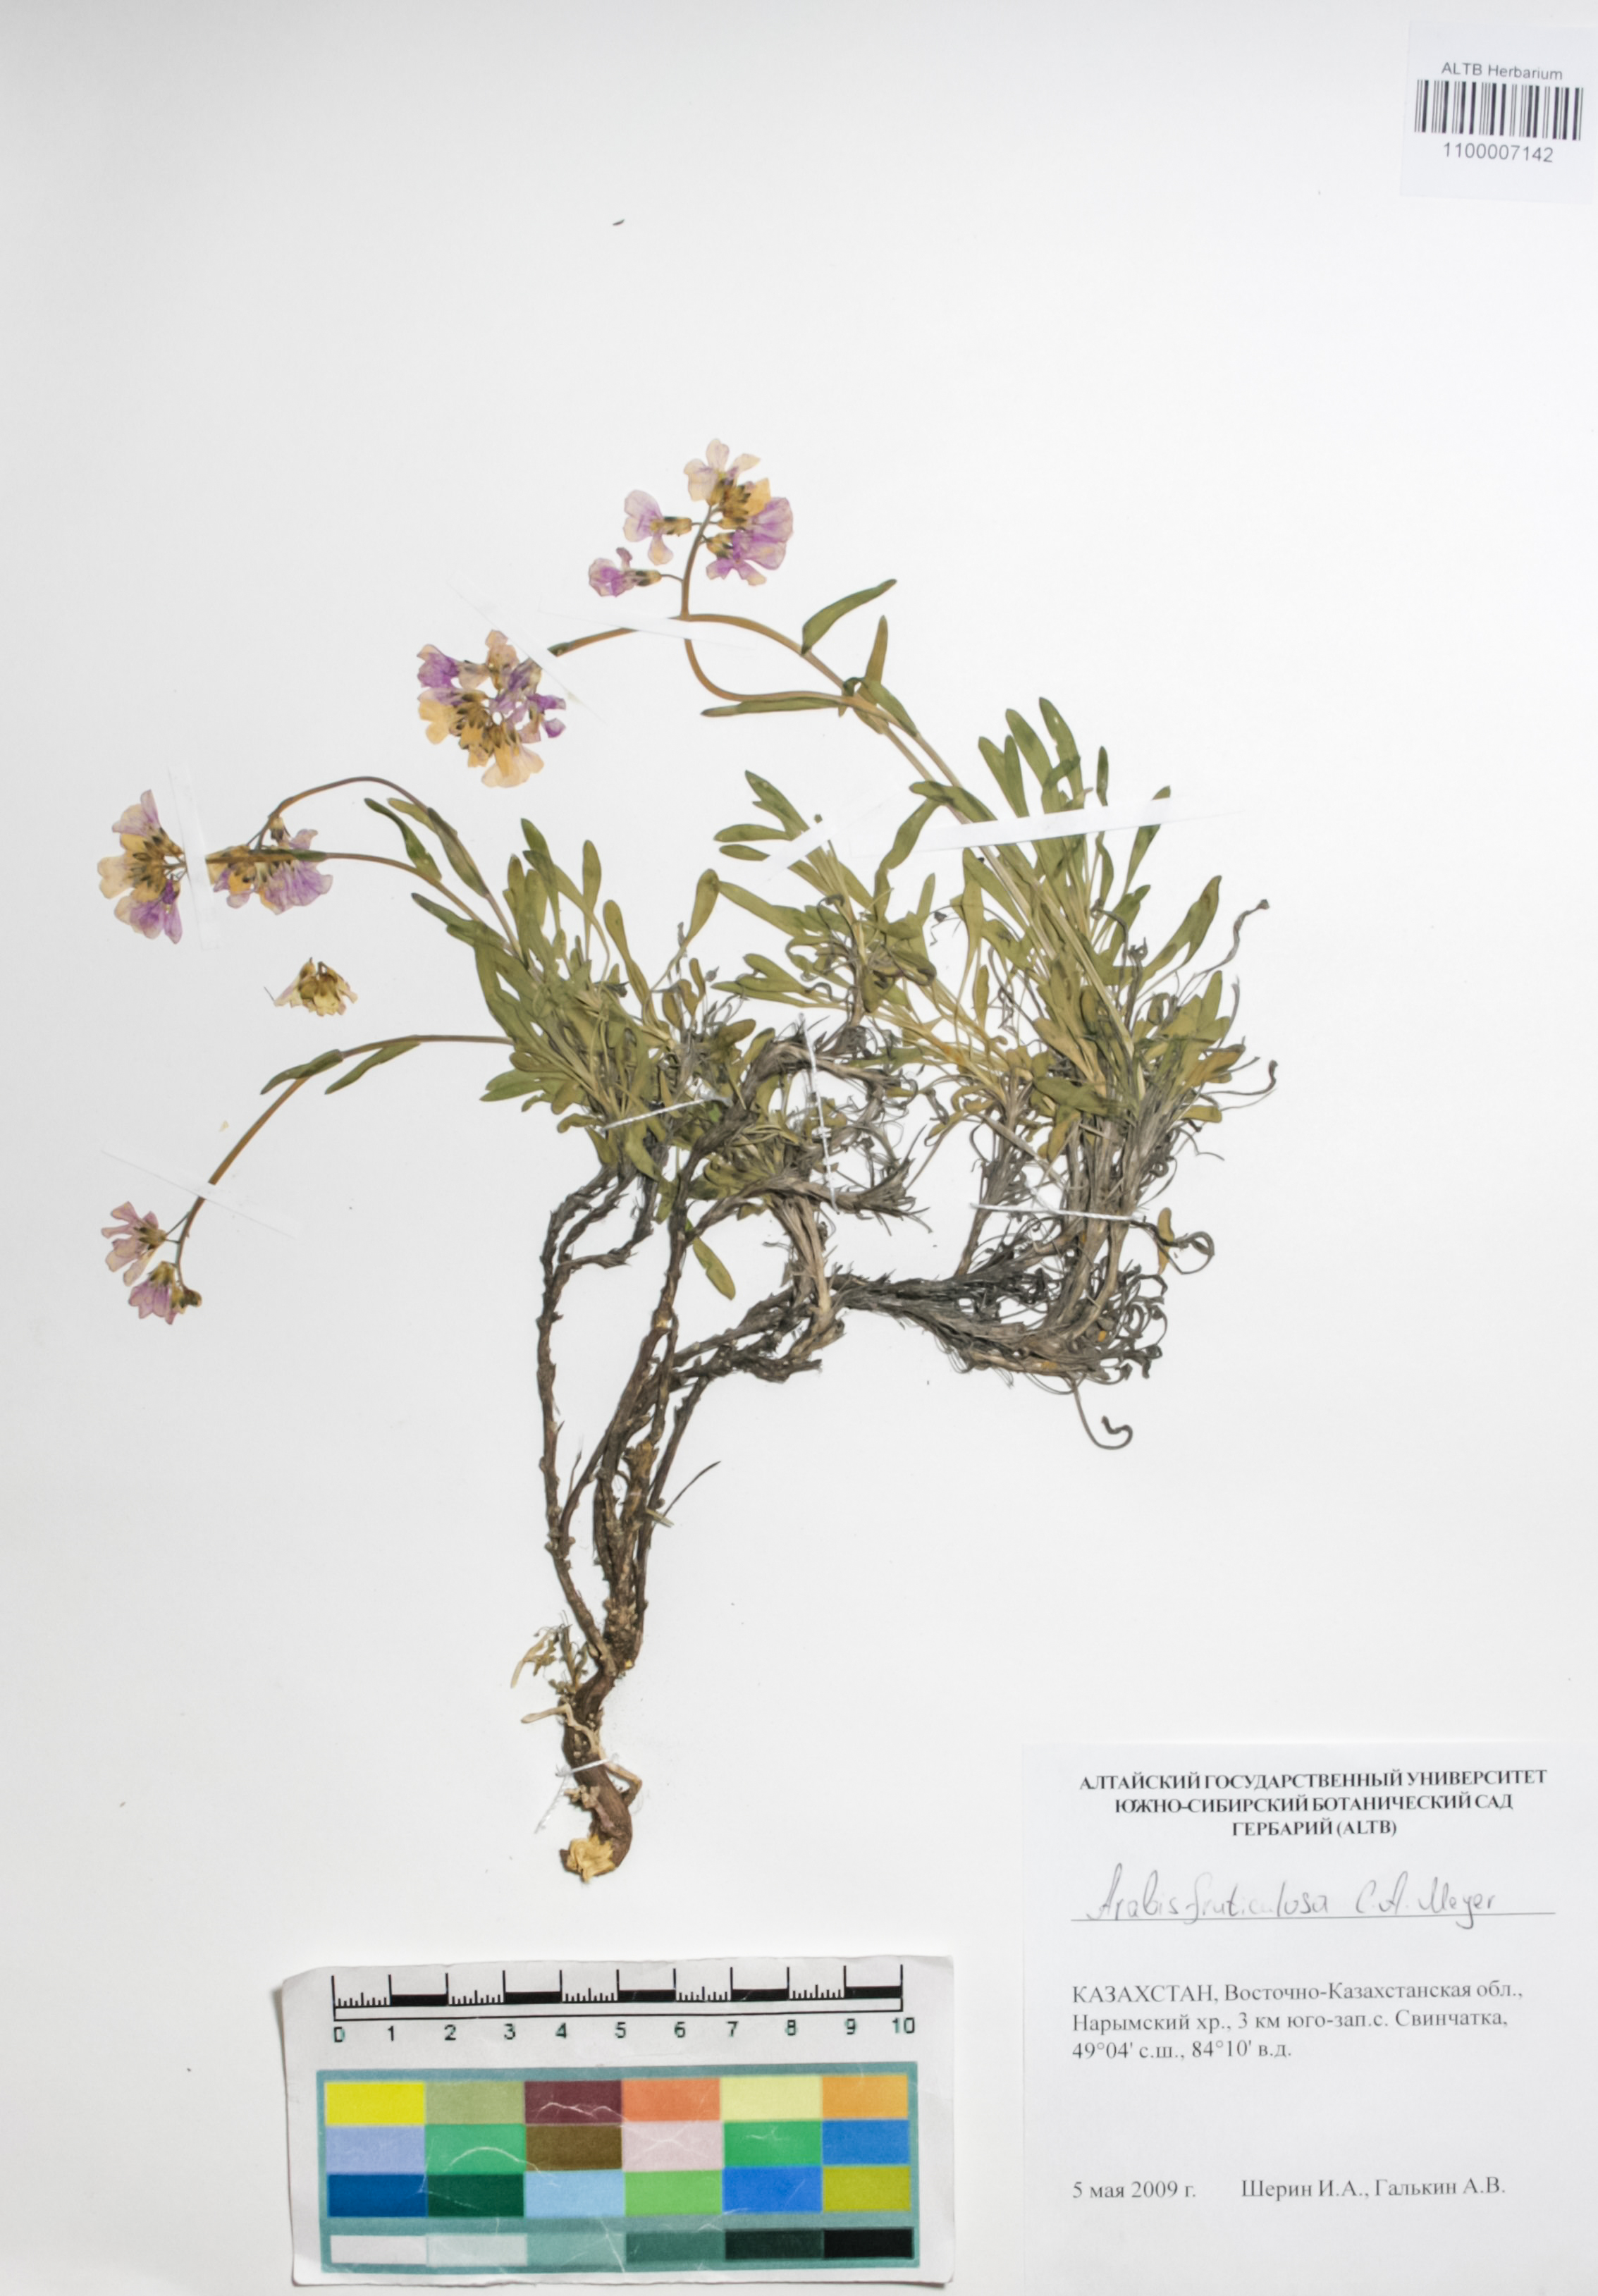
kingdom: Plantae
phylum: Tracheophyta
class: Magnoliopsida
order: Brassicales
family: Brassicaceae
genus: Dendroarabis
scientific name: Dendroarabis fruticulosa
